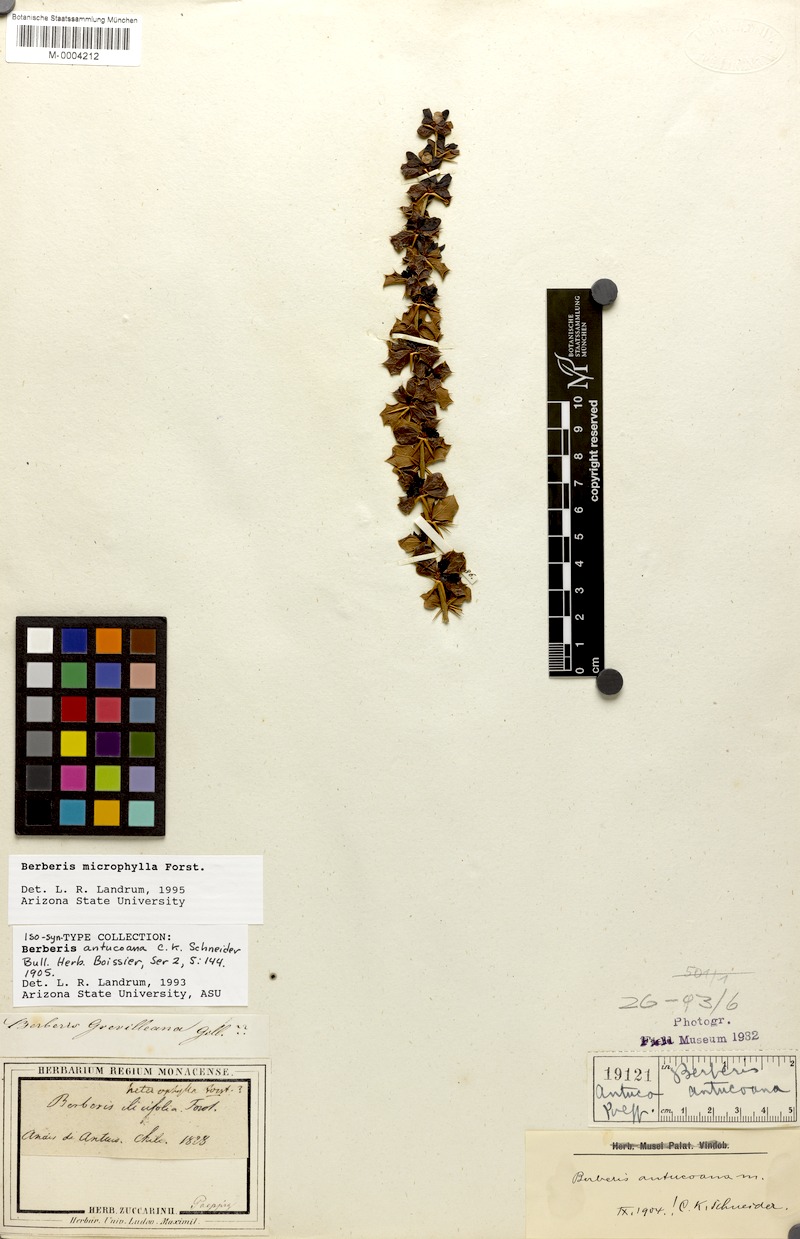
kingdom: Plantae
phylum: Tracheophyta
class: Magnoliopsida
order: Ranunculales
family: Berberidaceae
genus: Berberis
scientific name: Berberis microphylla
